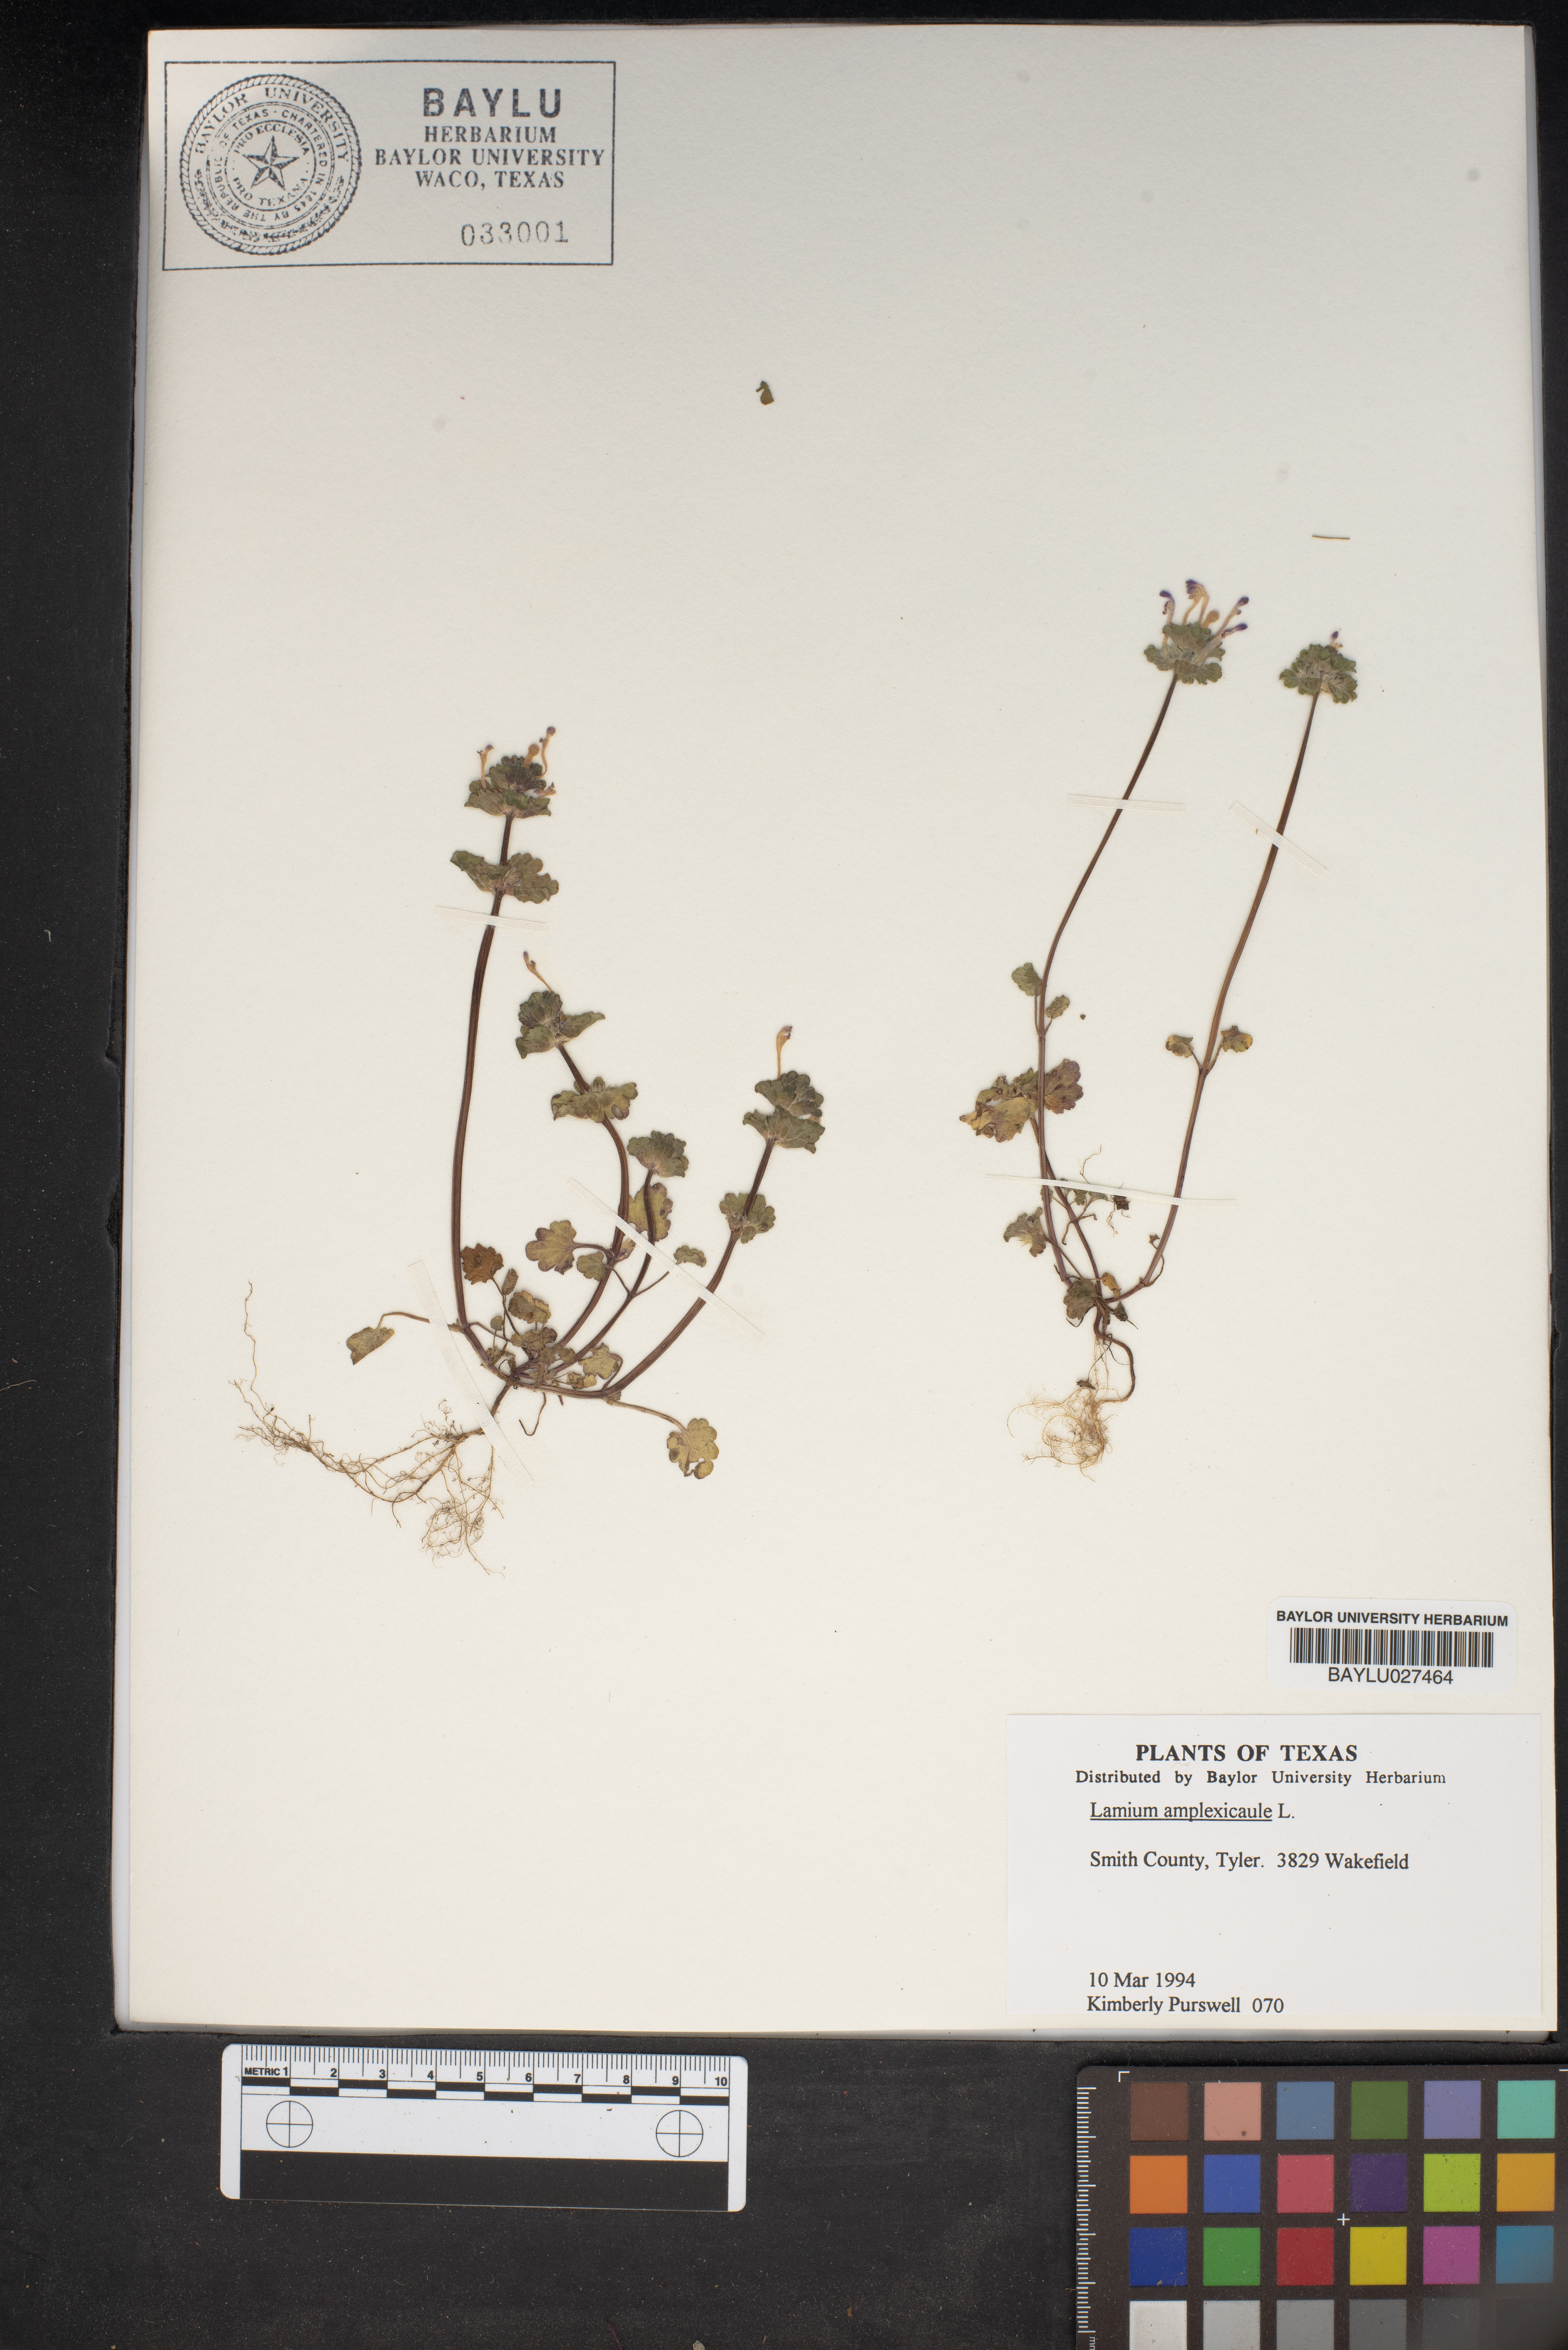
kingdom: Plantae
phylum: Tracheophyta
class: Magnoliopsida
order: Lamiales
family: Lamiaceae
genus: Lamium
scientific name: Lamium amplexicaule
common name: Henbit dead-nettle
